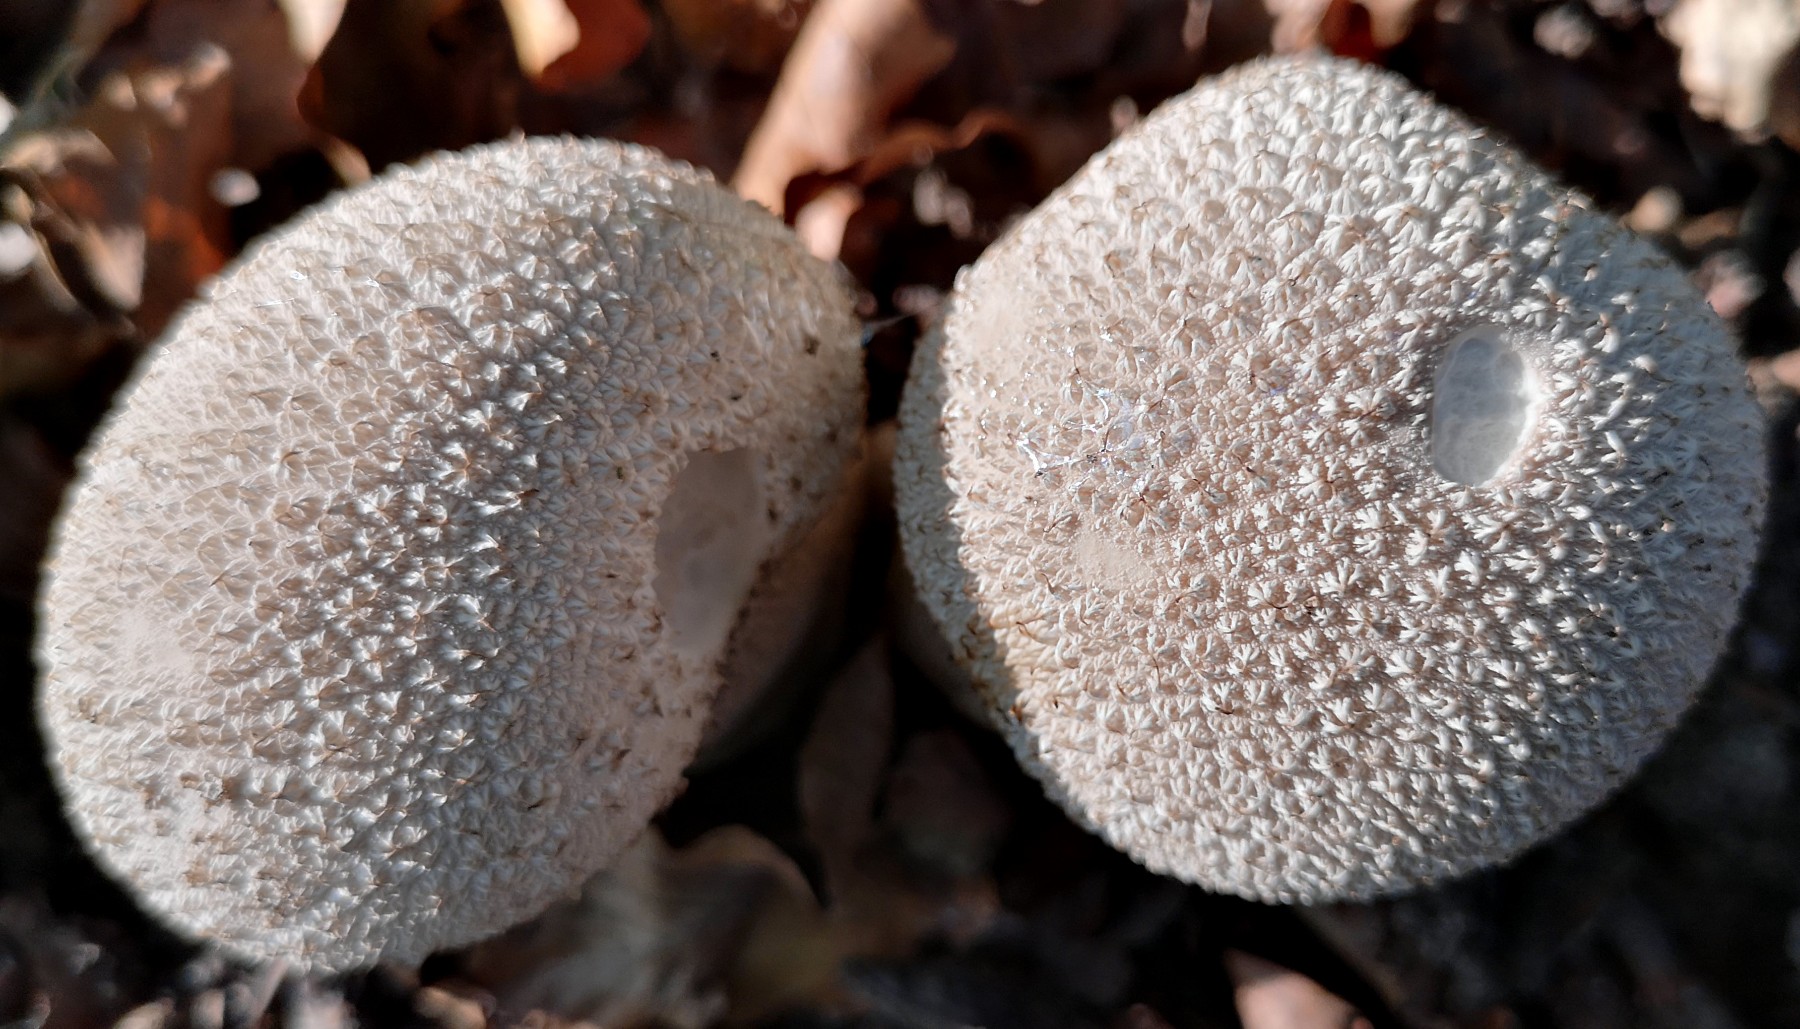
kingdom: Fungi
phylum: Basidiomycota
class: Agaricomycetes
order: Agaricales
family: Lycoperdaceae
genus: Lycoperdon
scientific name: Lycoperdon excipuliforme
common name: højstokket støvbold
